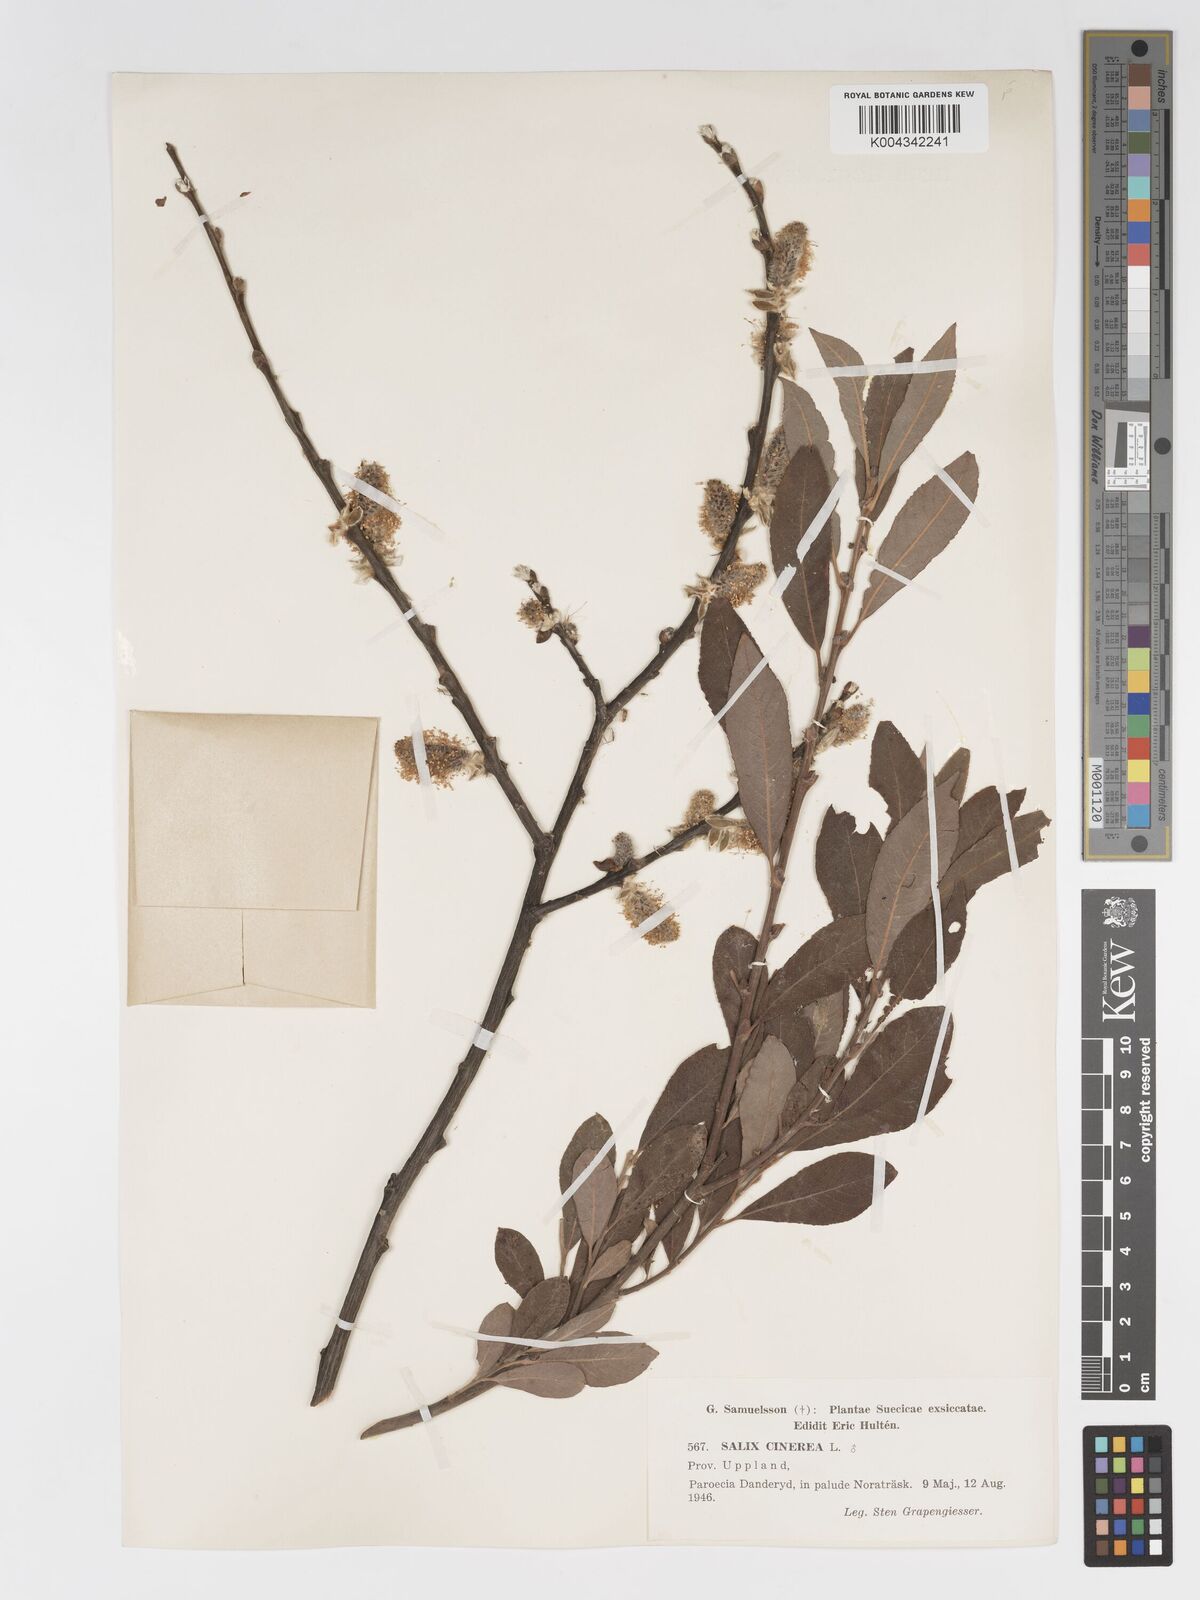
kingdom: Plantae
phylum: Tracheophyta
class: Magnoliopsida
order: Malpighiales
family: Salicaceae
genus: Salix
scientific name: Salix
